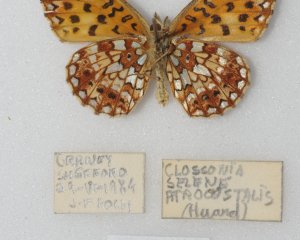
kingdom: Animalia
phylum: Arthropoda
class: Insecta
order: Lepidoptera
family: Nymphalidae
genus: Boloria
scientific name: Boloria selene
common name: Silver-bordered Fritillary
